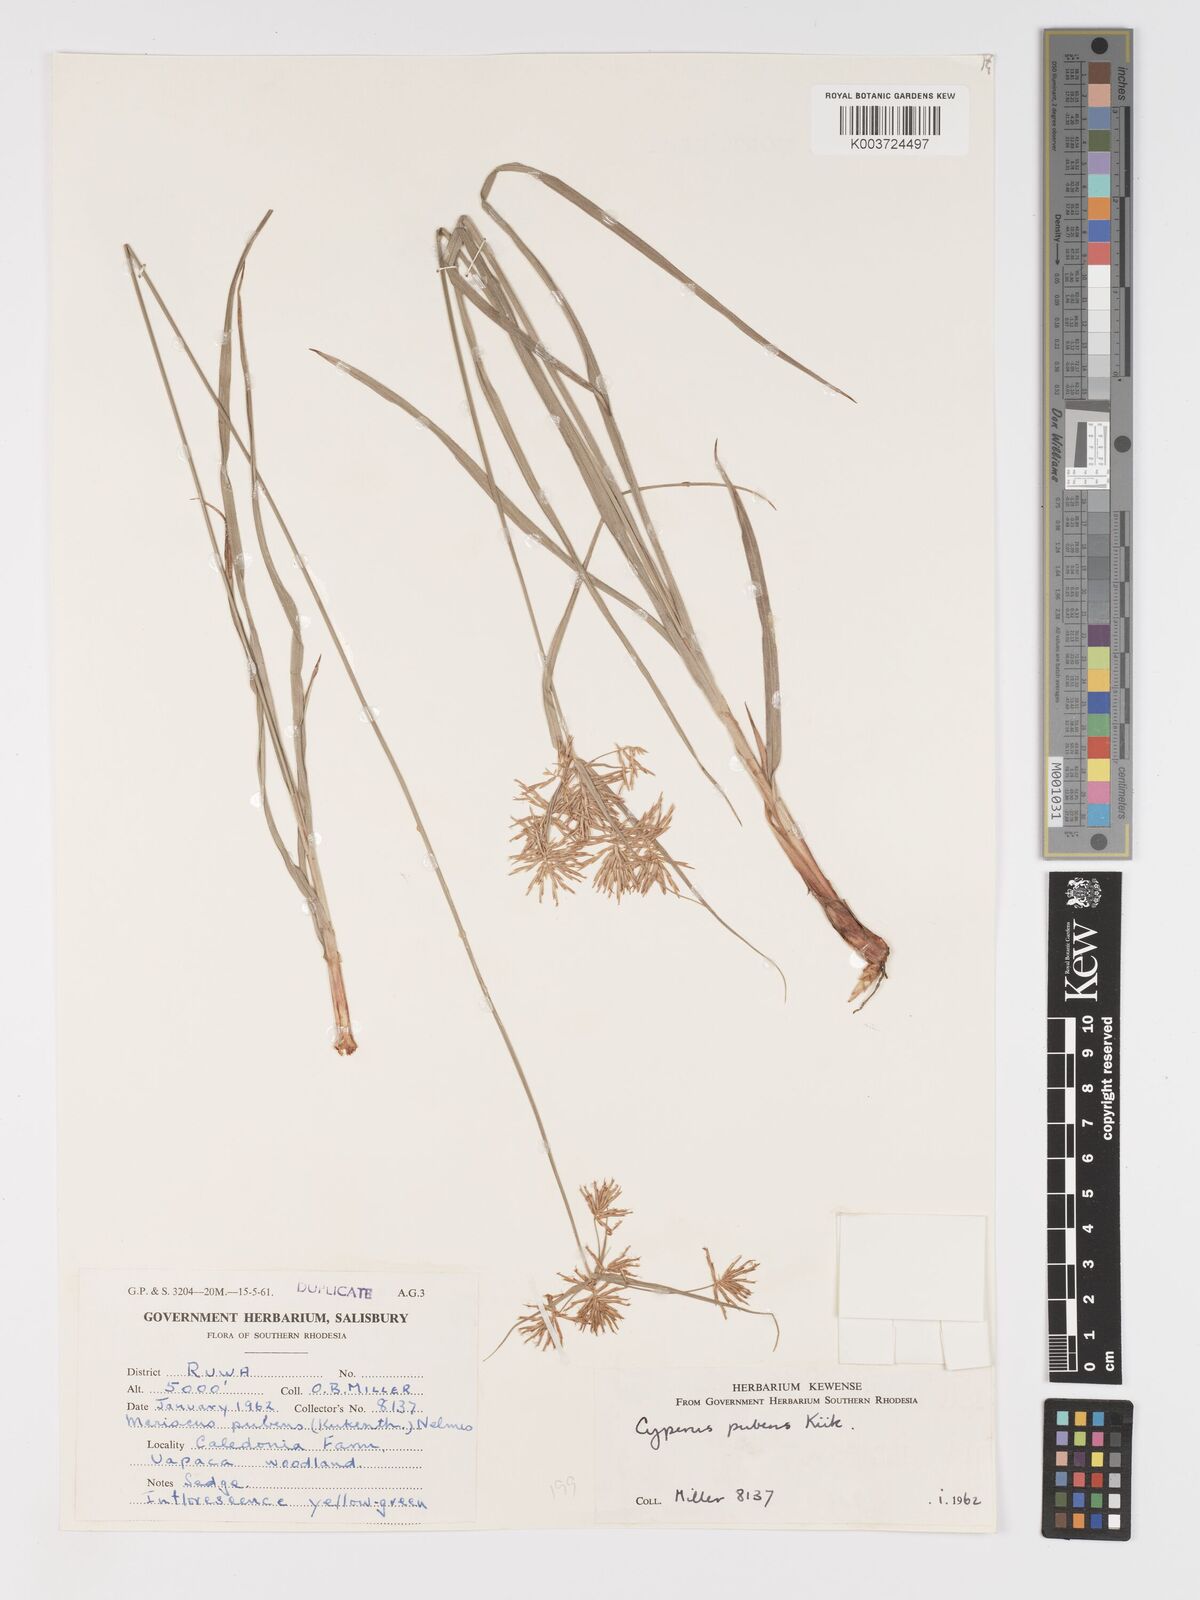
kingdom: Plantae
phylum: Tracheophyta
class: Liliopsida
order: Poales
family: Cyperaceae
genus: Cyperus
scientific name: Cyperus pubens
